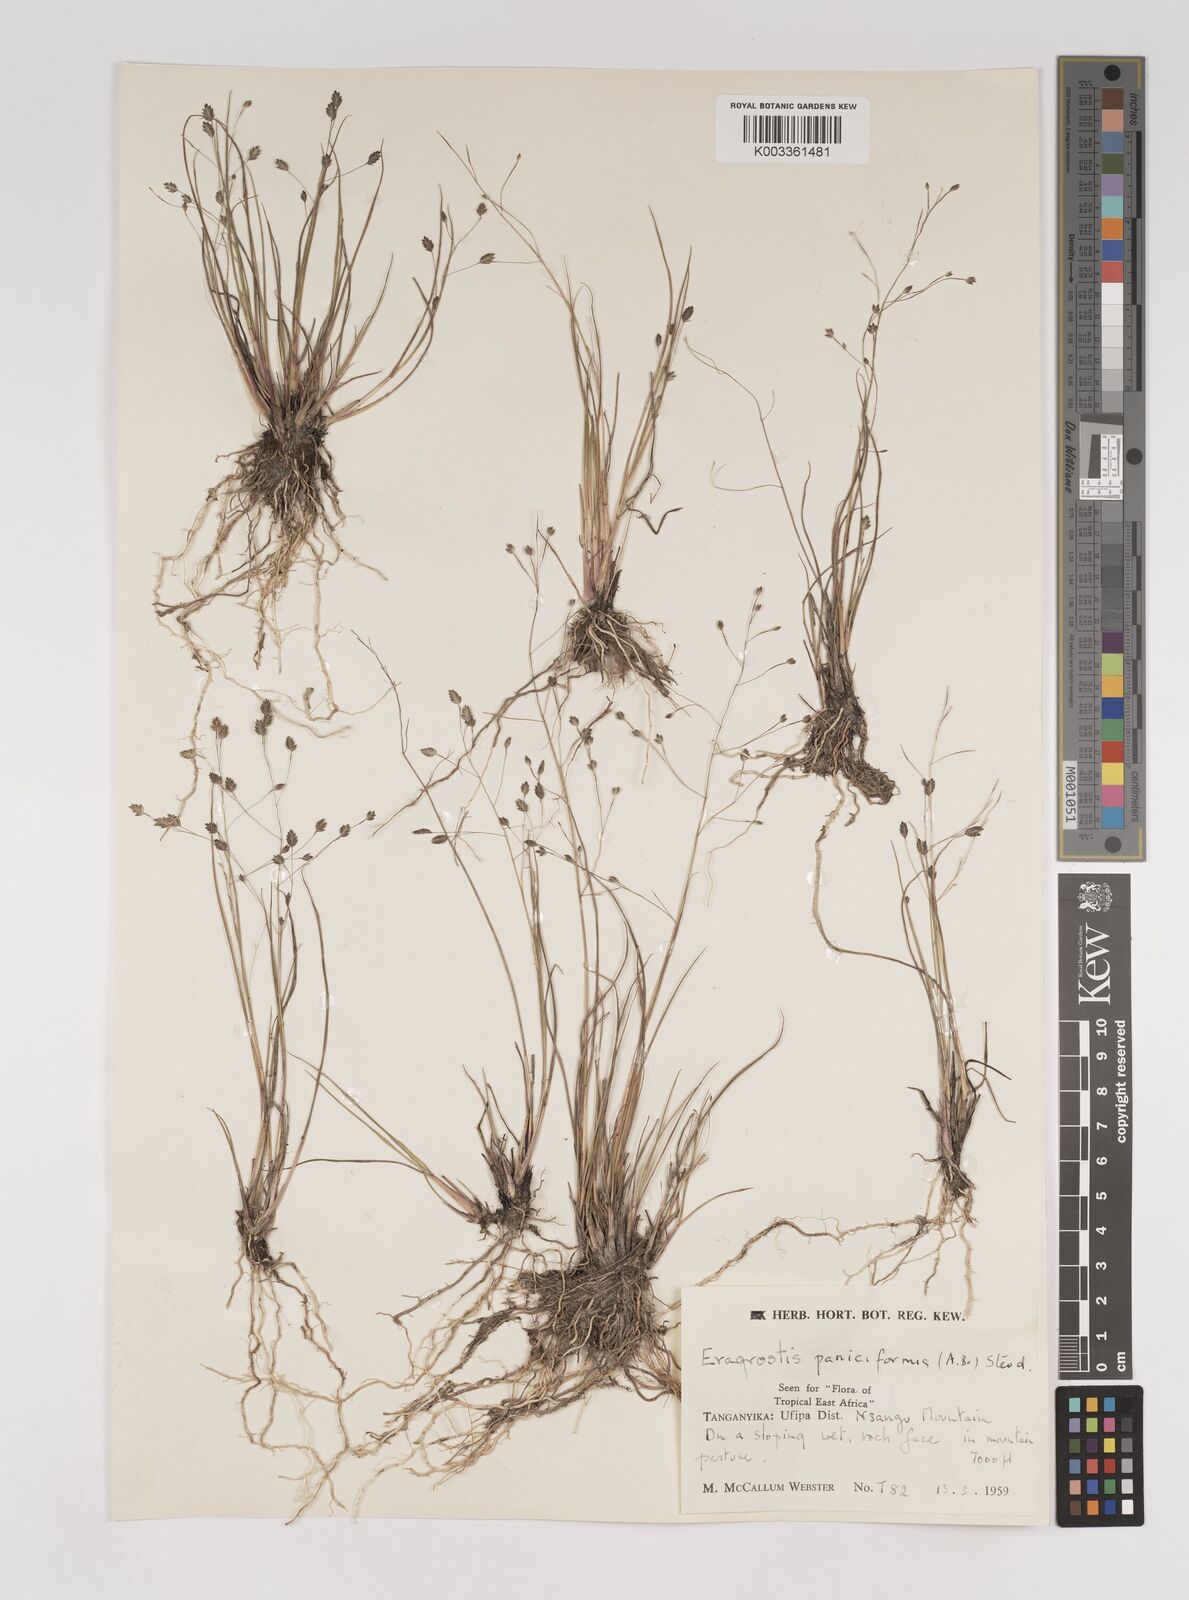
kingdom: Plantae
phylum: Tracheophyta
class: Liliopsida
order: Poales
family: Poaceae
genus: Eragrostis
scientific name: Eragrostis paniciformis
